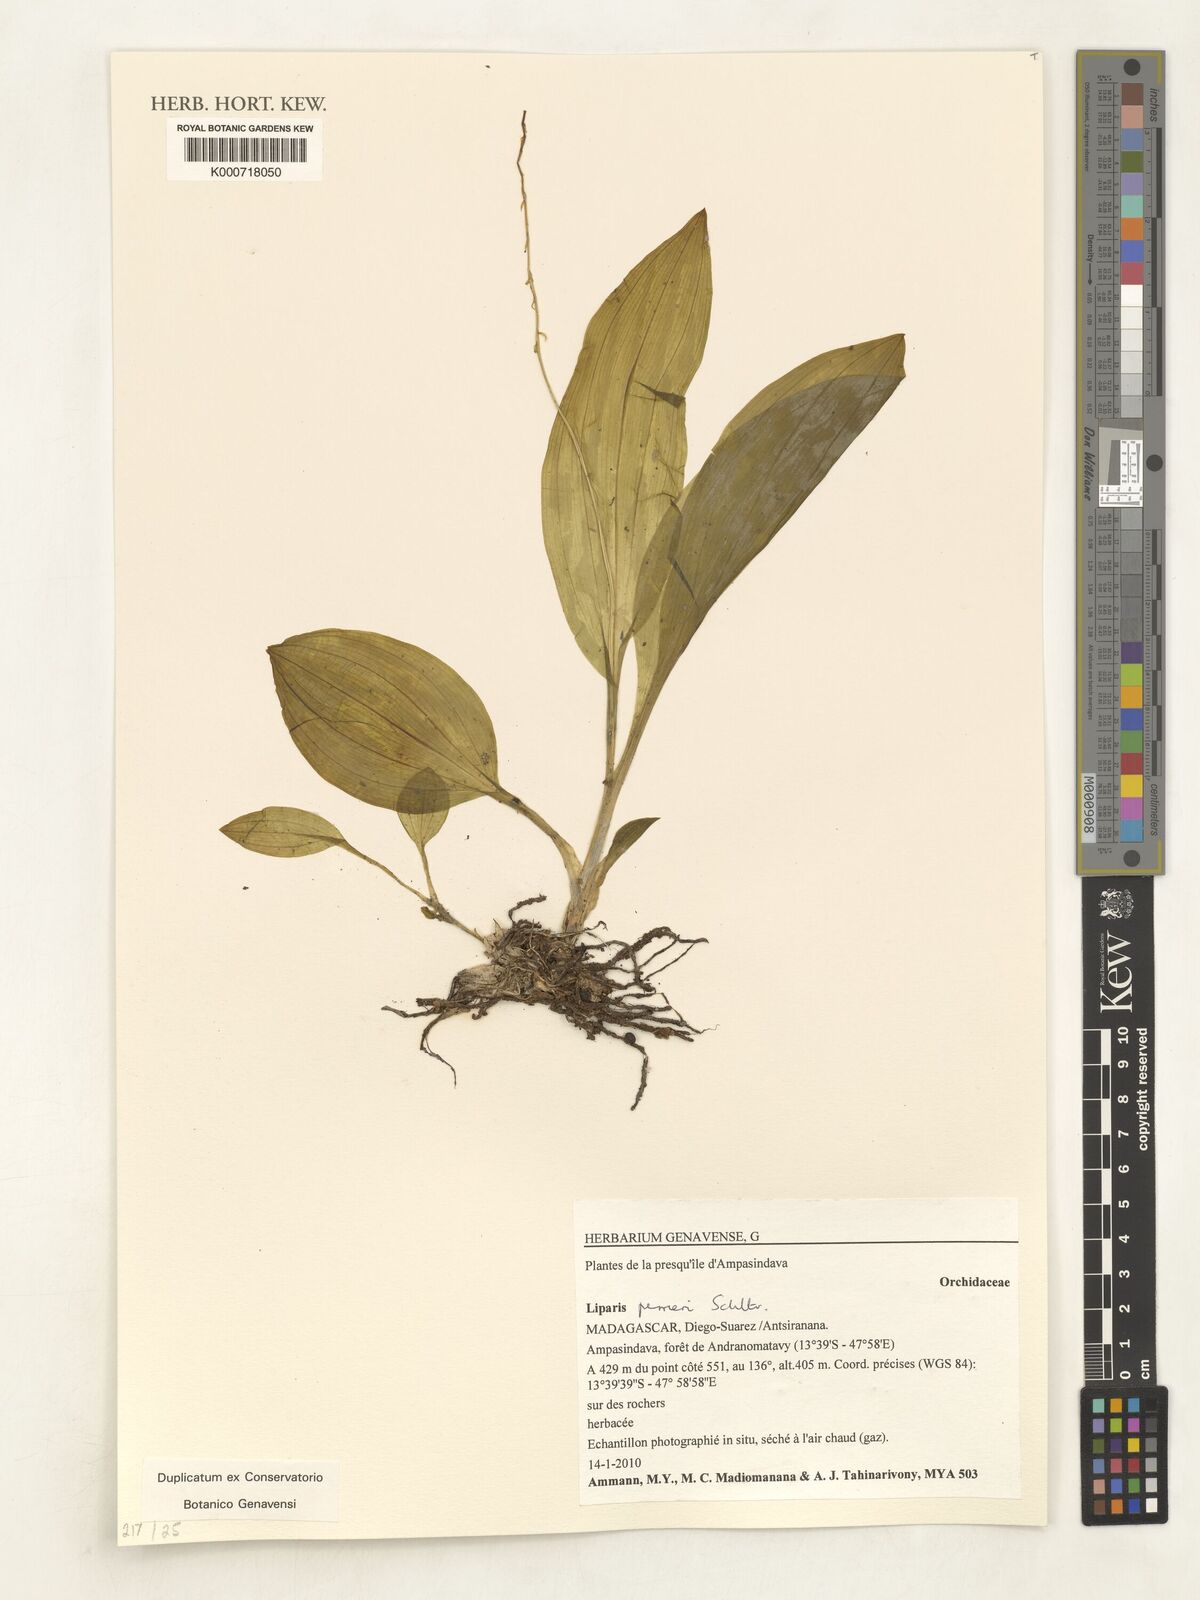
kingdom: Plantae
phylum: Tracheophyta
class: Liliopsida
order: Asparagales
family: Orchidaceae
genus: Liparis
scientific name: Liparis perrieri
